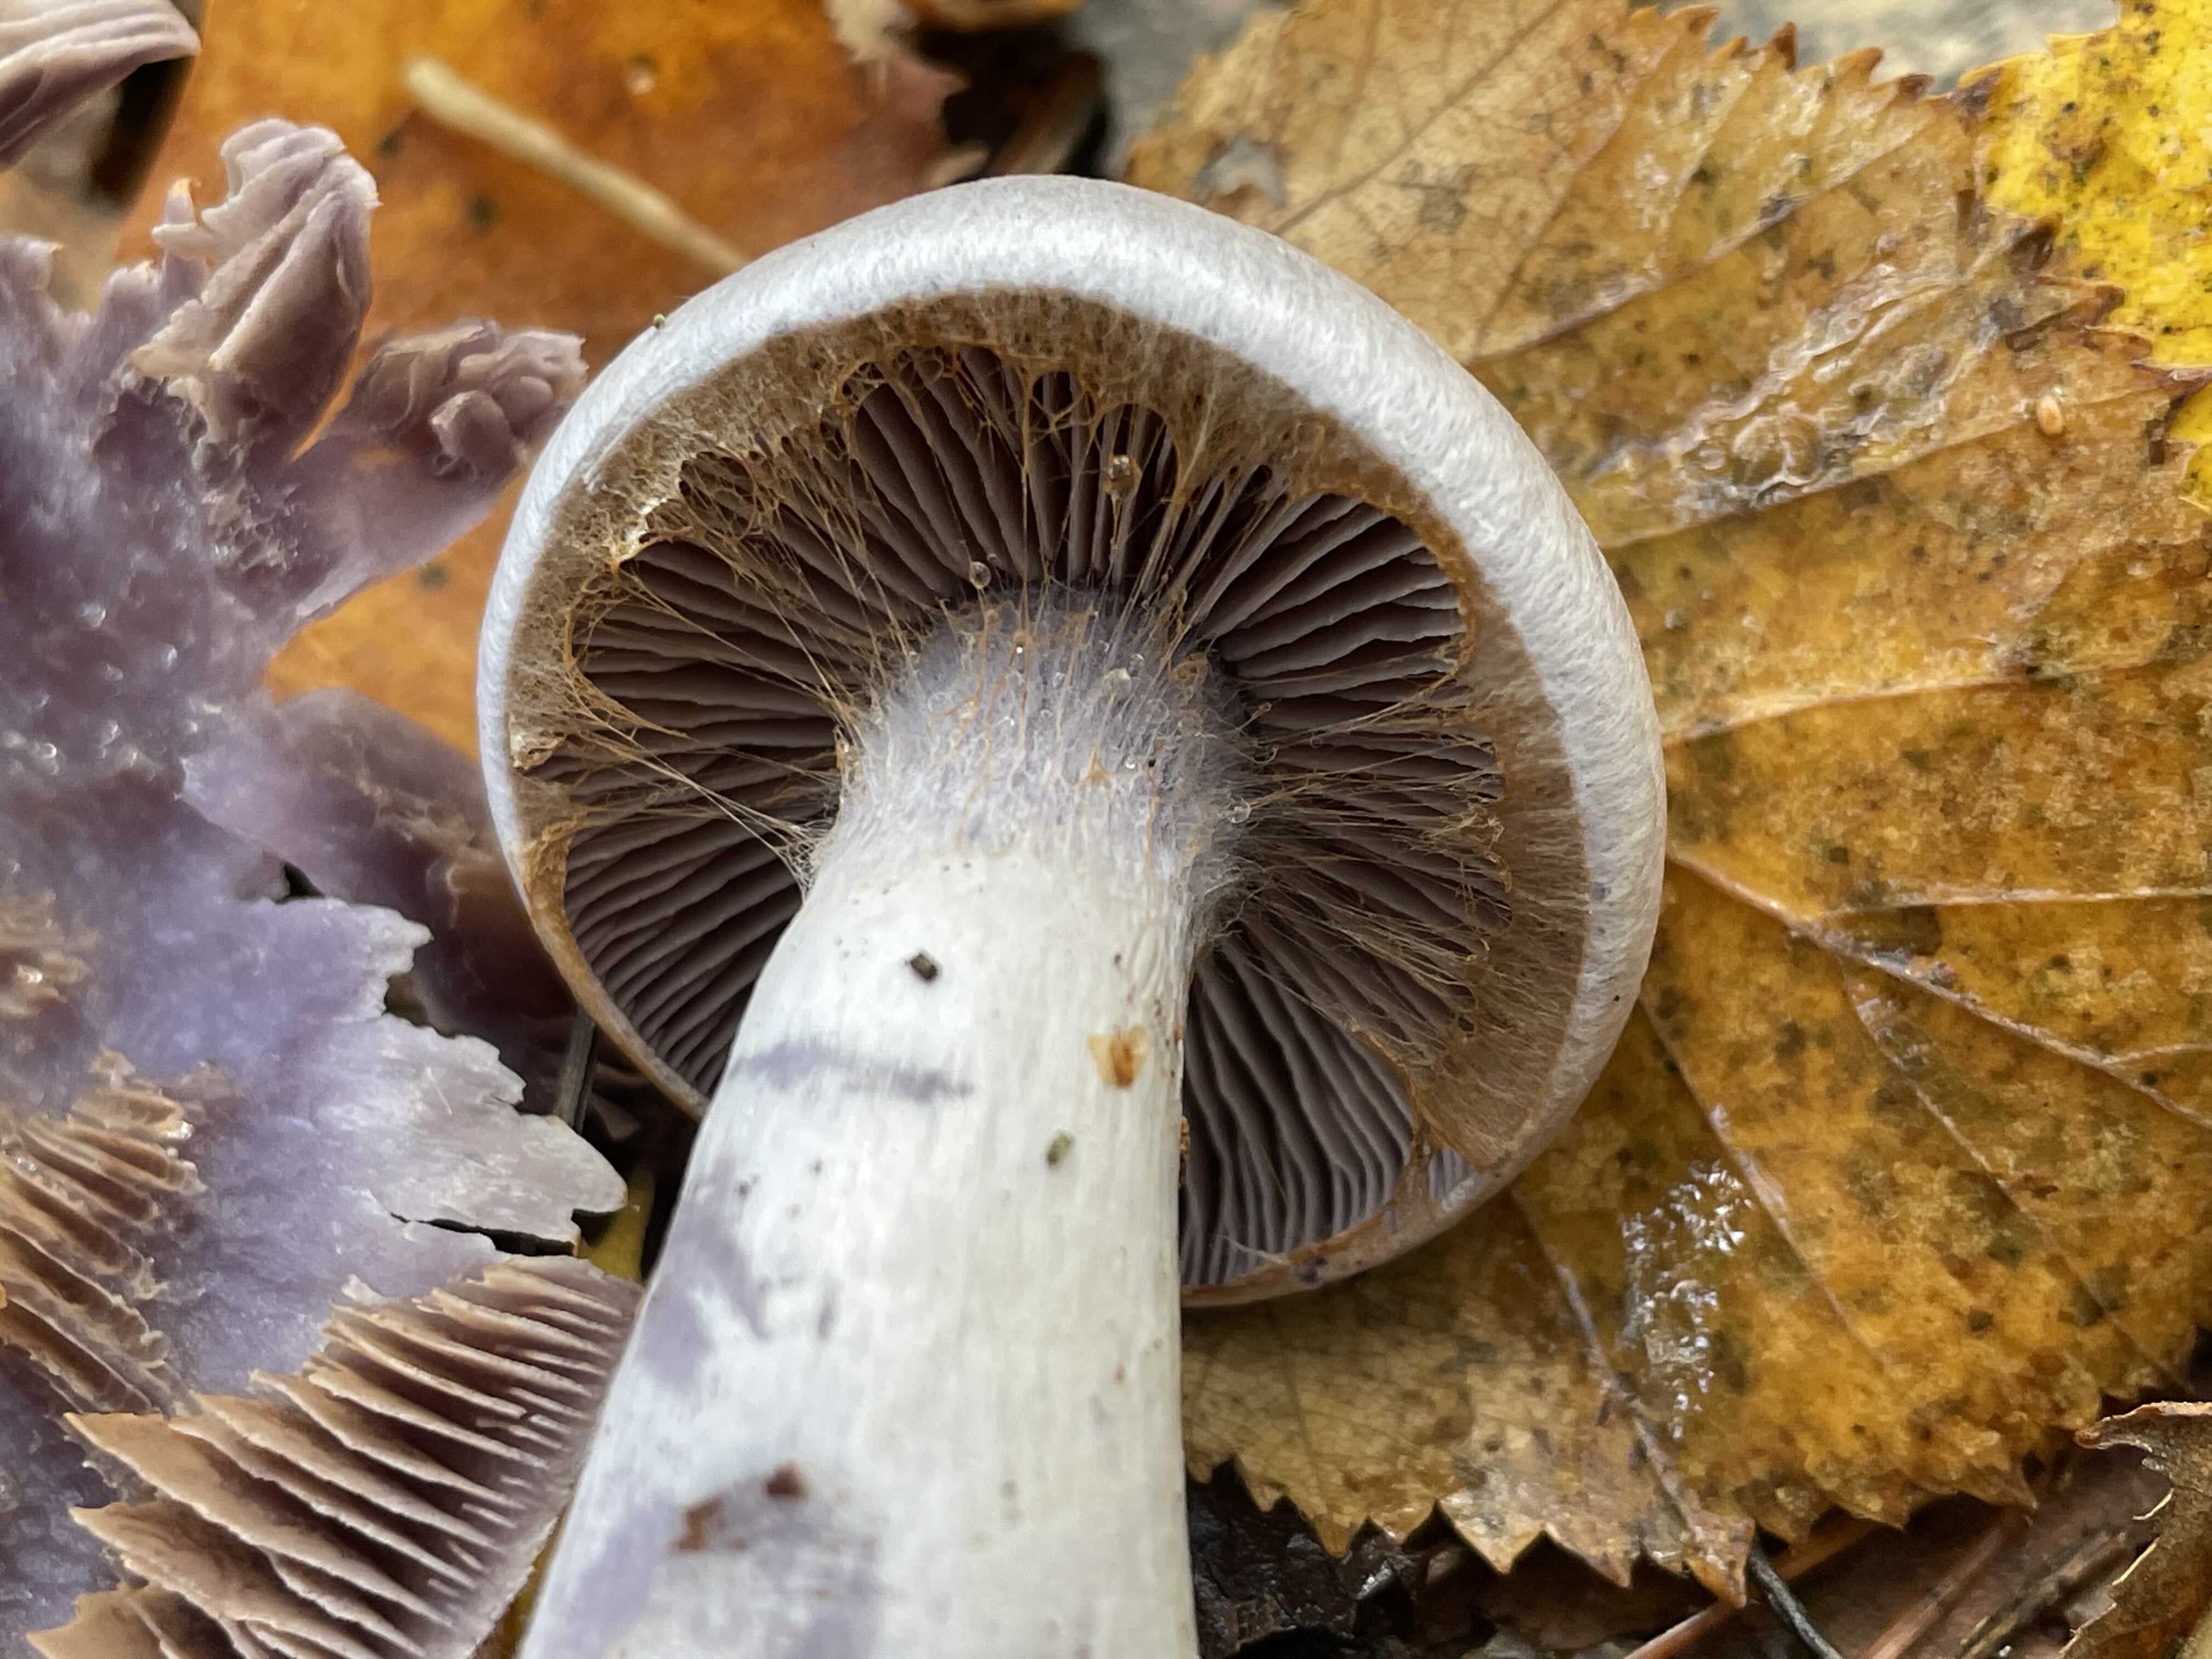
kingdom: Fungi
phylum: Basidiomycota
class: Agaricomycetes
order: Agaricales
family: Cortinariaceae
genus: Cortinarius
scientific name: Cortinarius alboviolaceus
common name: lysviolet slørhat
